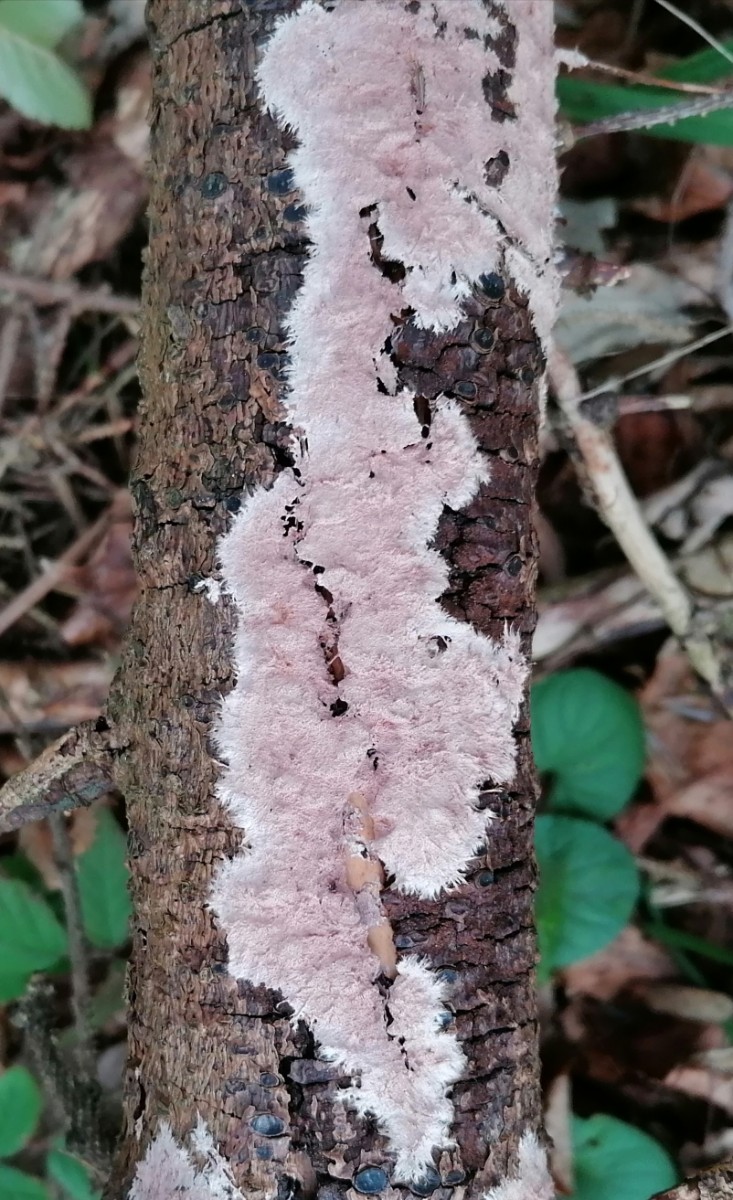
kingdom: Fungi
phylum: Basidiomycota
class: Agaricomycetes
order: Polyporales
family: Steccherinaceae
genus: Steccherinum
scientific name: Steccherinum fimbriatum
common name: trådet skønpig
